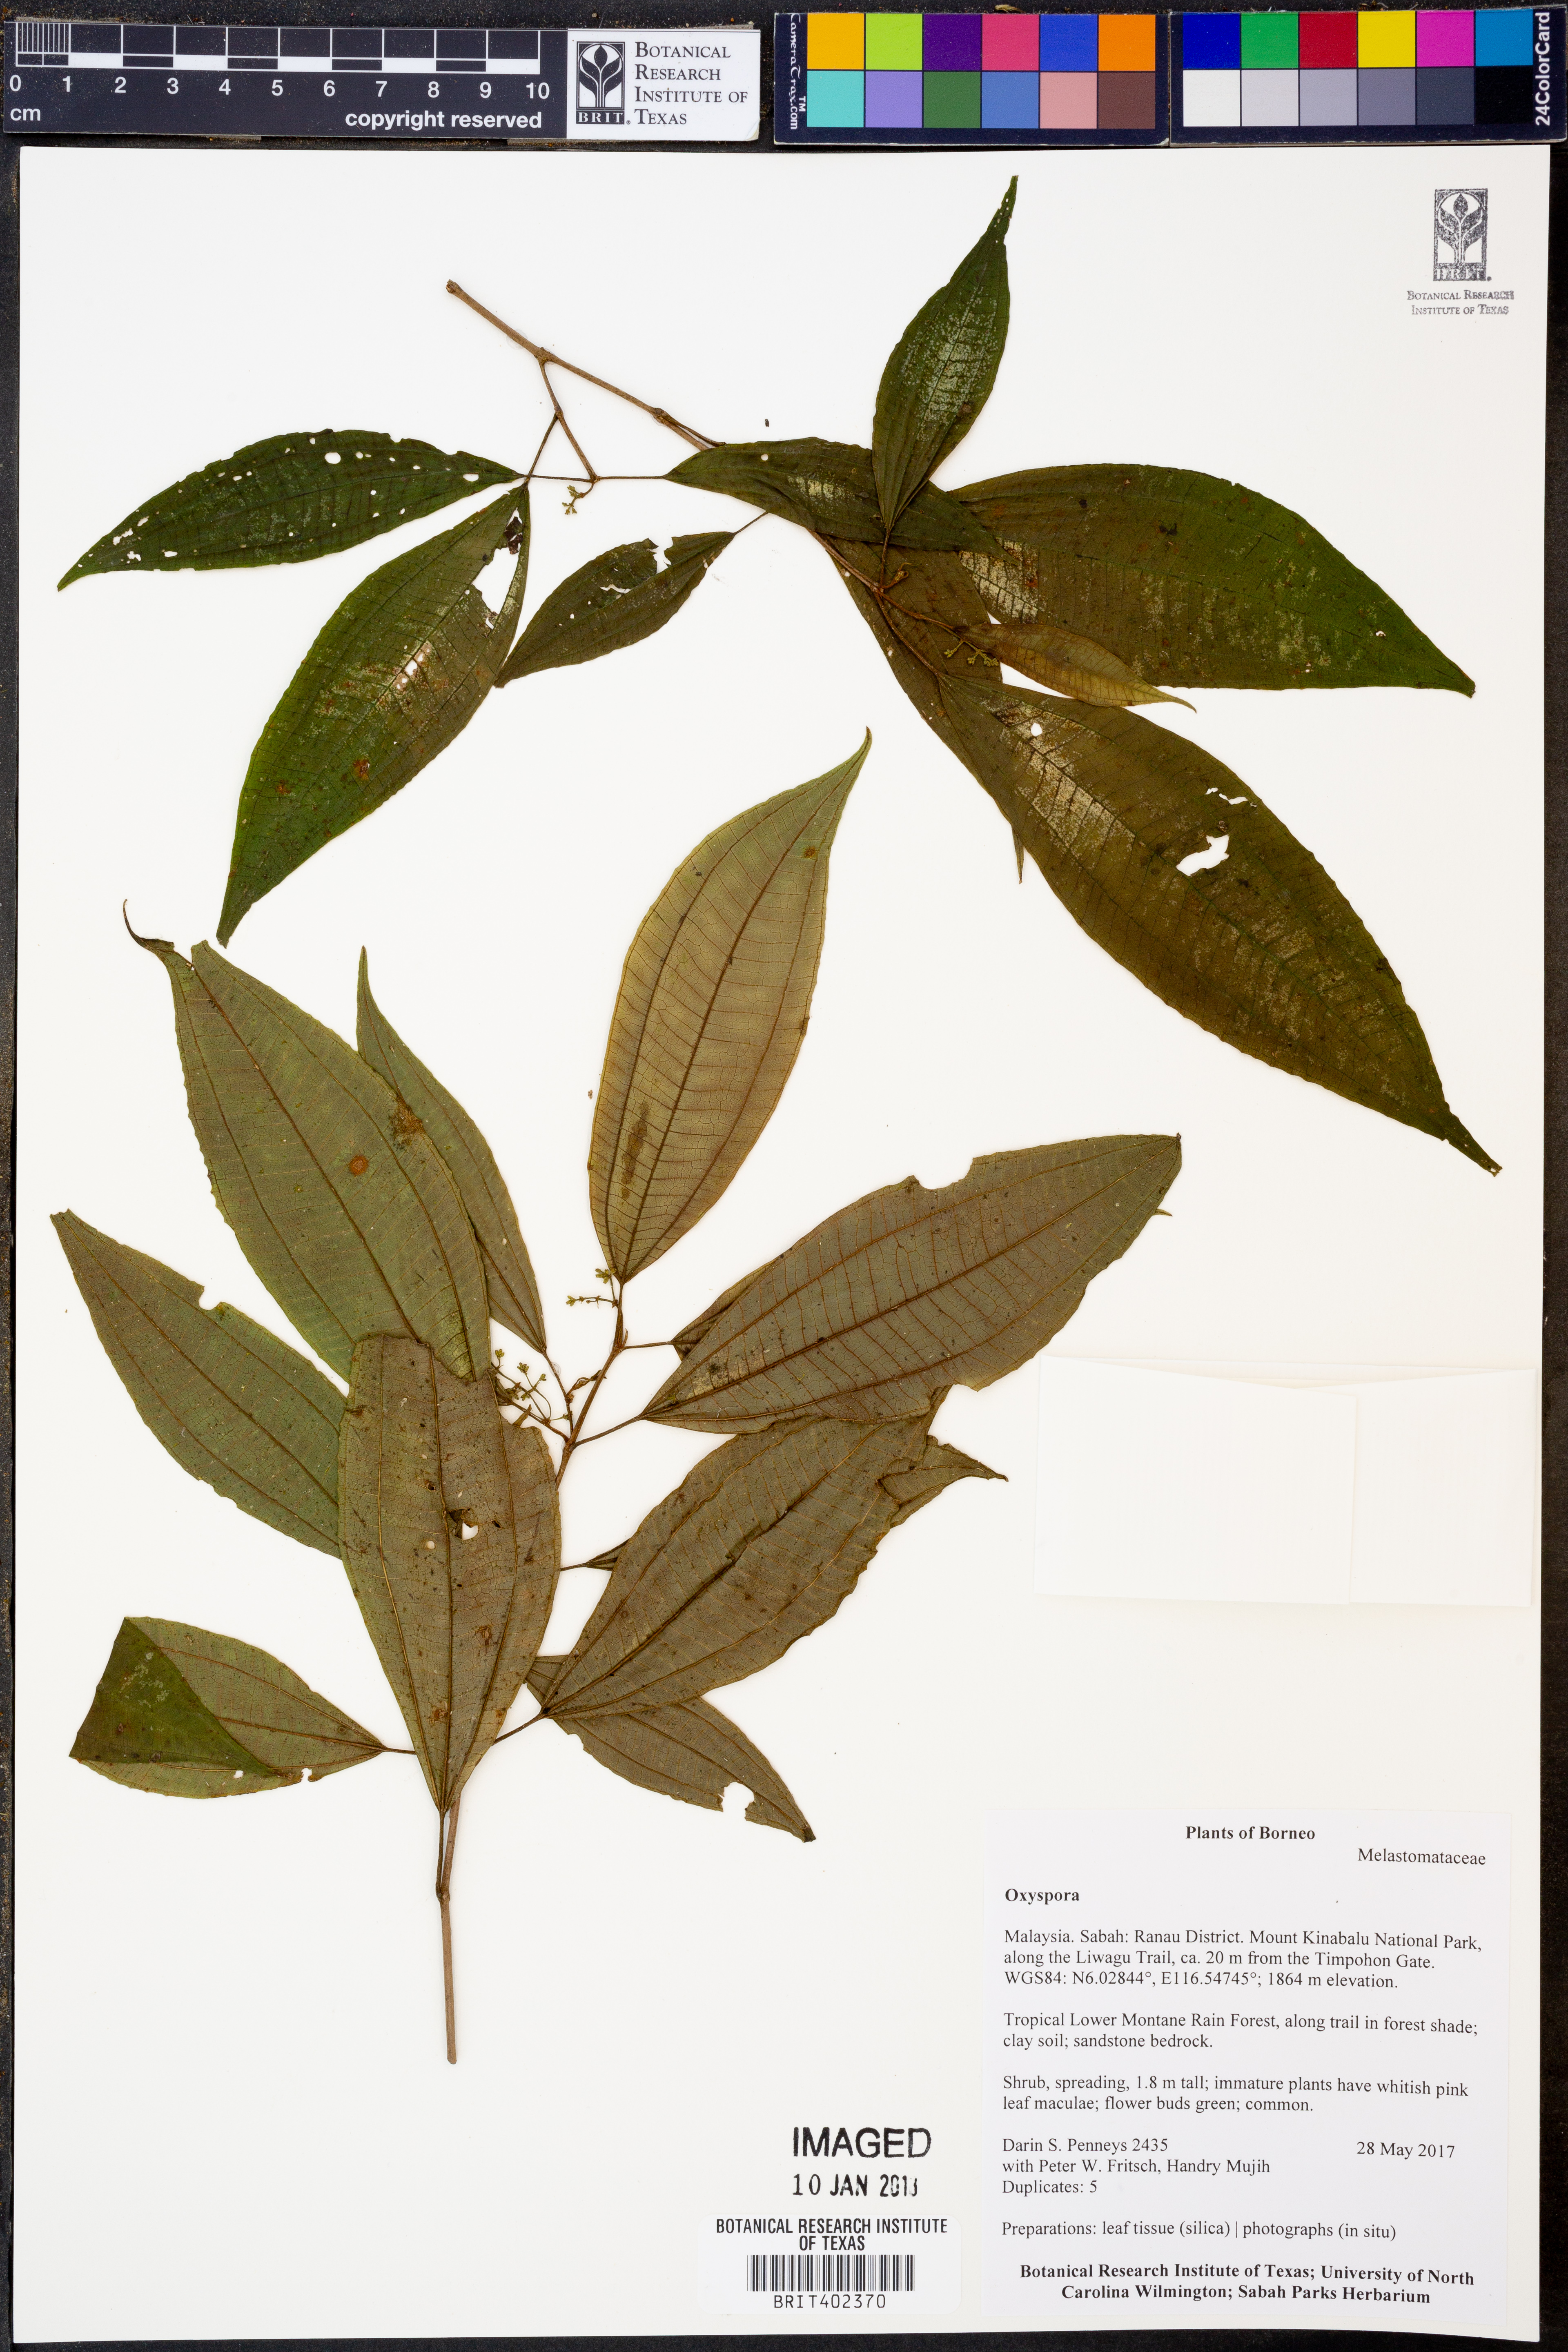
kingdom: Plantae
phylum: Tracheophyta
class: Magnoliopsida
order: Myrtales
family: Melastomataceae
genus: Oxyspora
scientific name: Oxyspora
